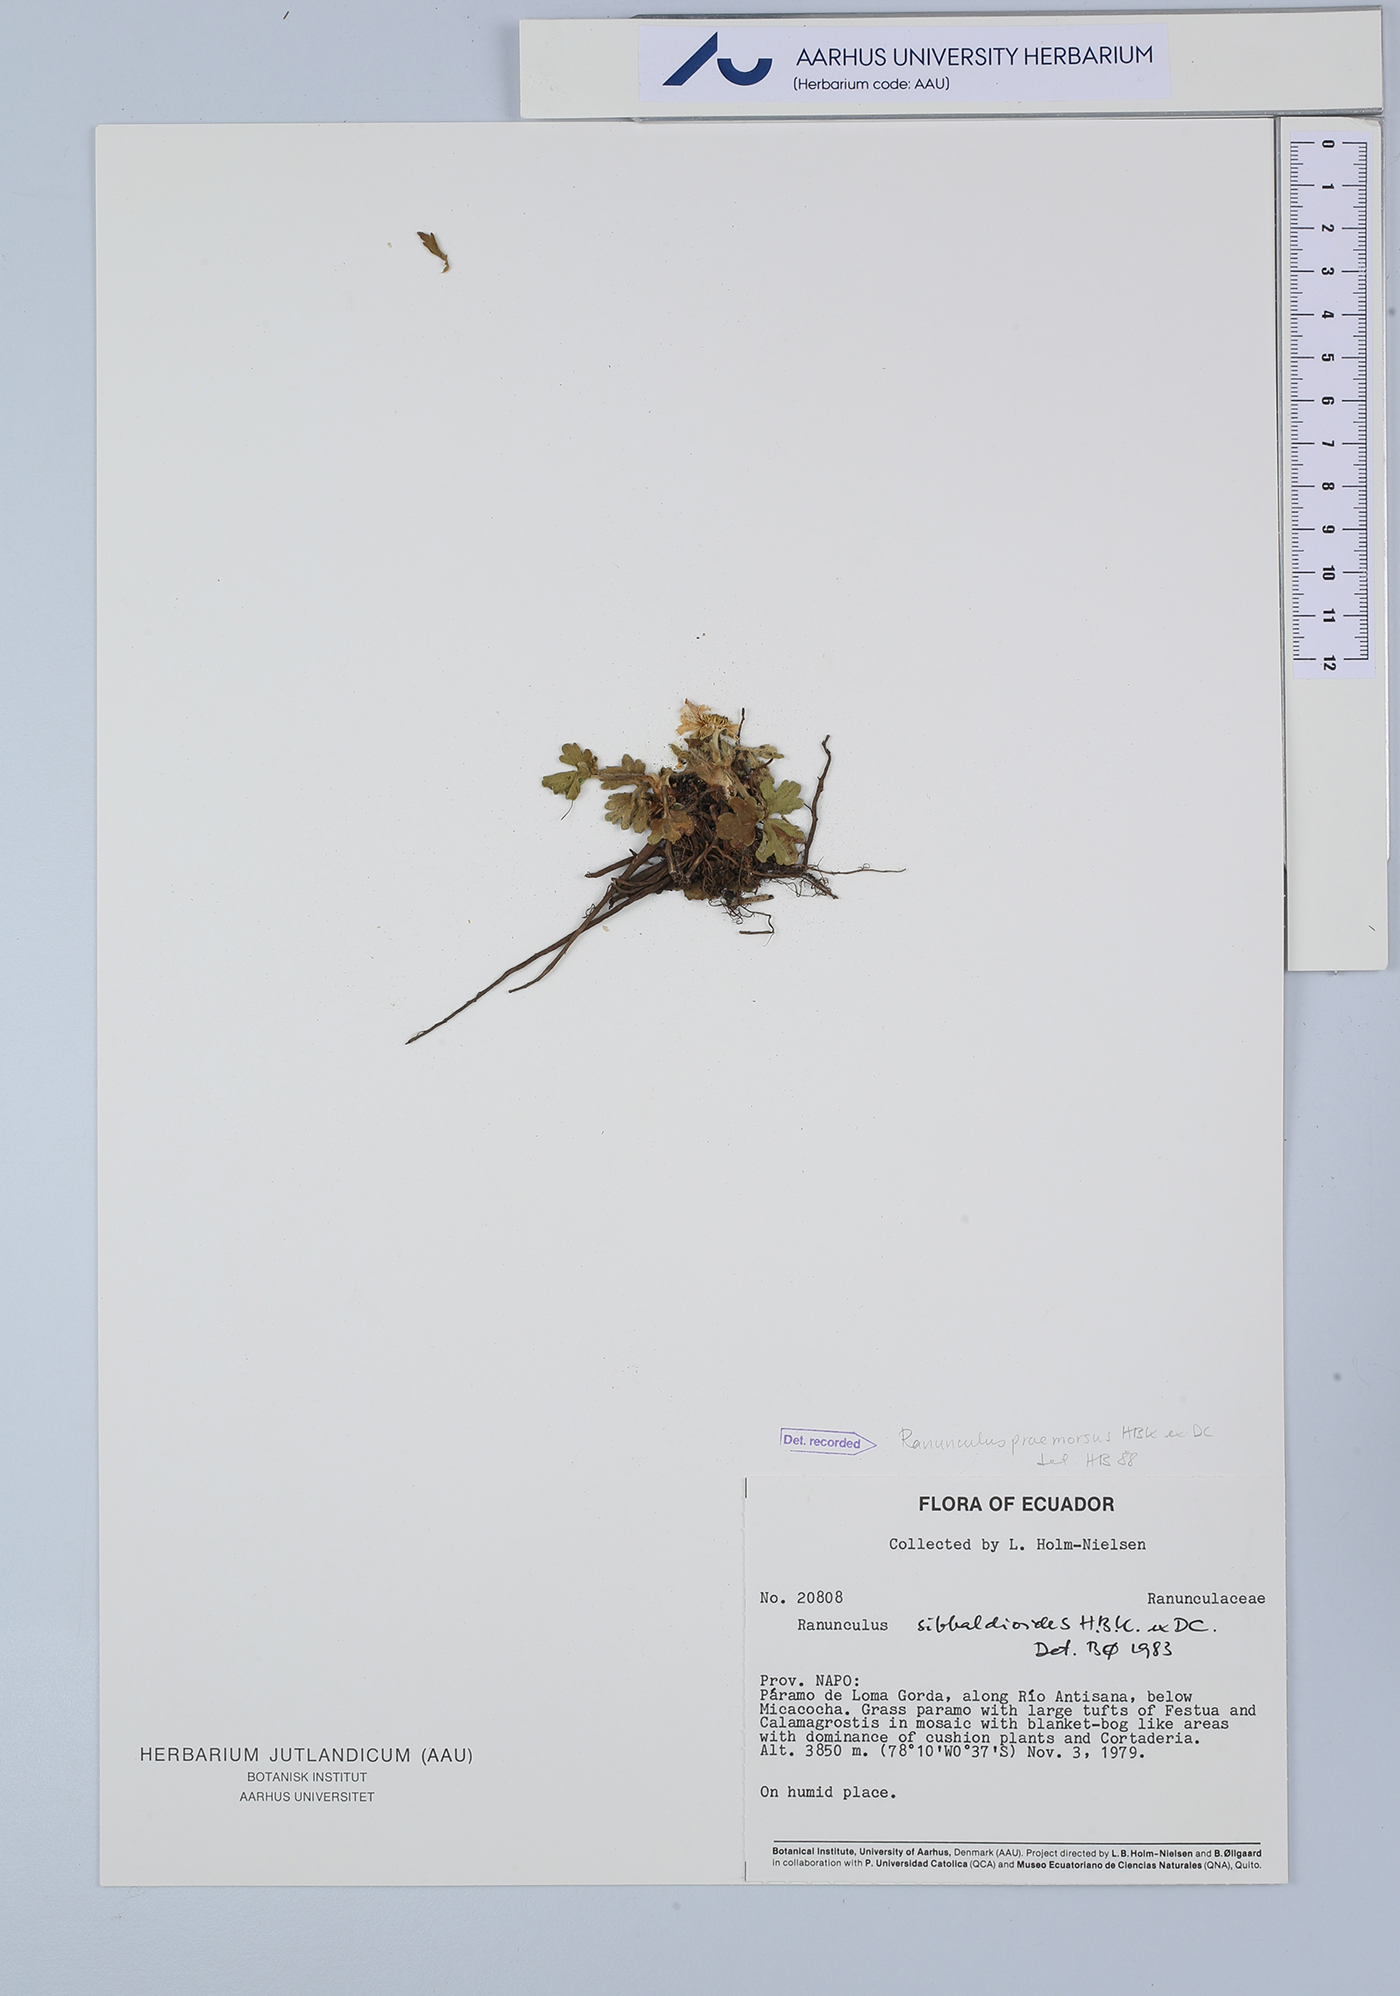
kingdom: Plantae
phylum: Tracheophyta
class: Magnoliopsida
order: Ranunculales
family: Ranunculaceae
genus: Ranunculus
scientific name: Ranunculus praemorsus
